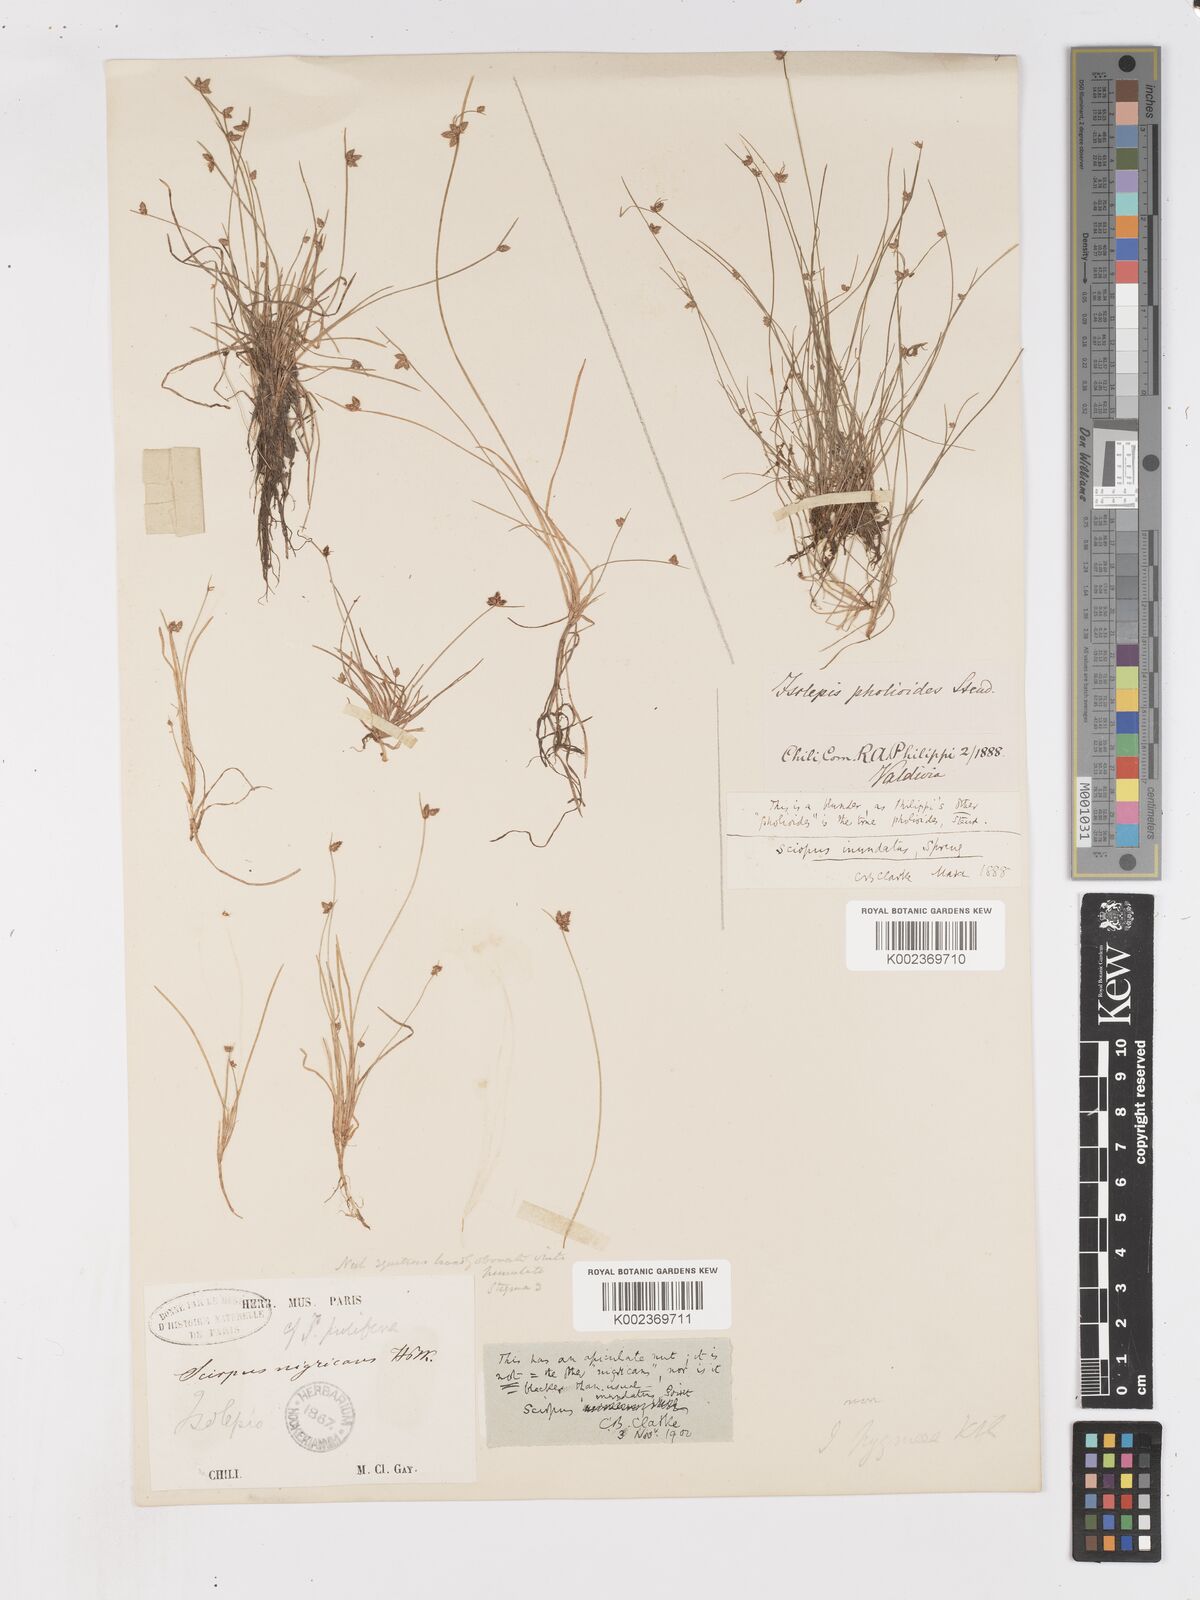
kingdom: Plantae
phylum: Tracheophyta
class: Liliopsida
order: Poales
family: Cyperaceae
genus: Isolepis
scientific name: Isolepis inundata
